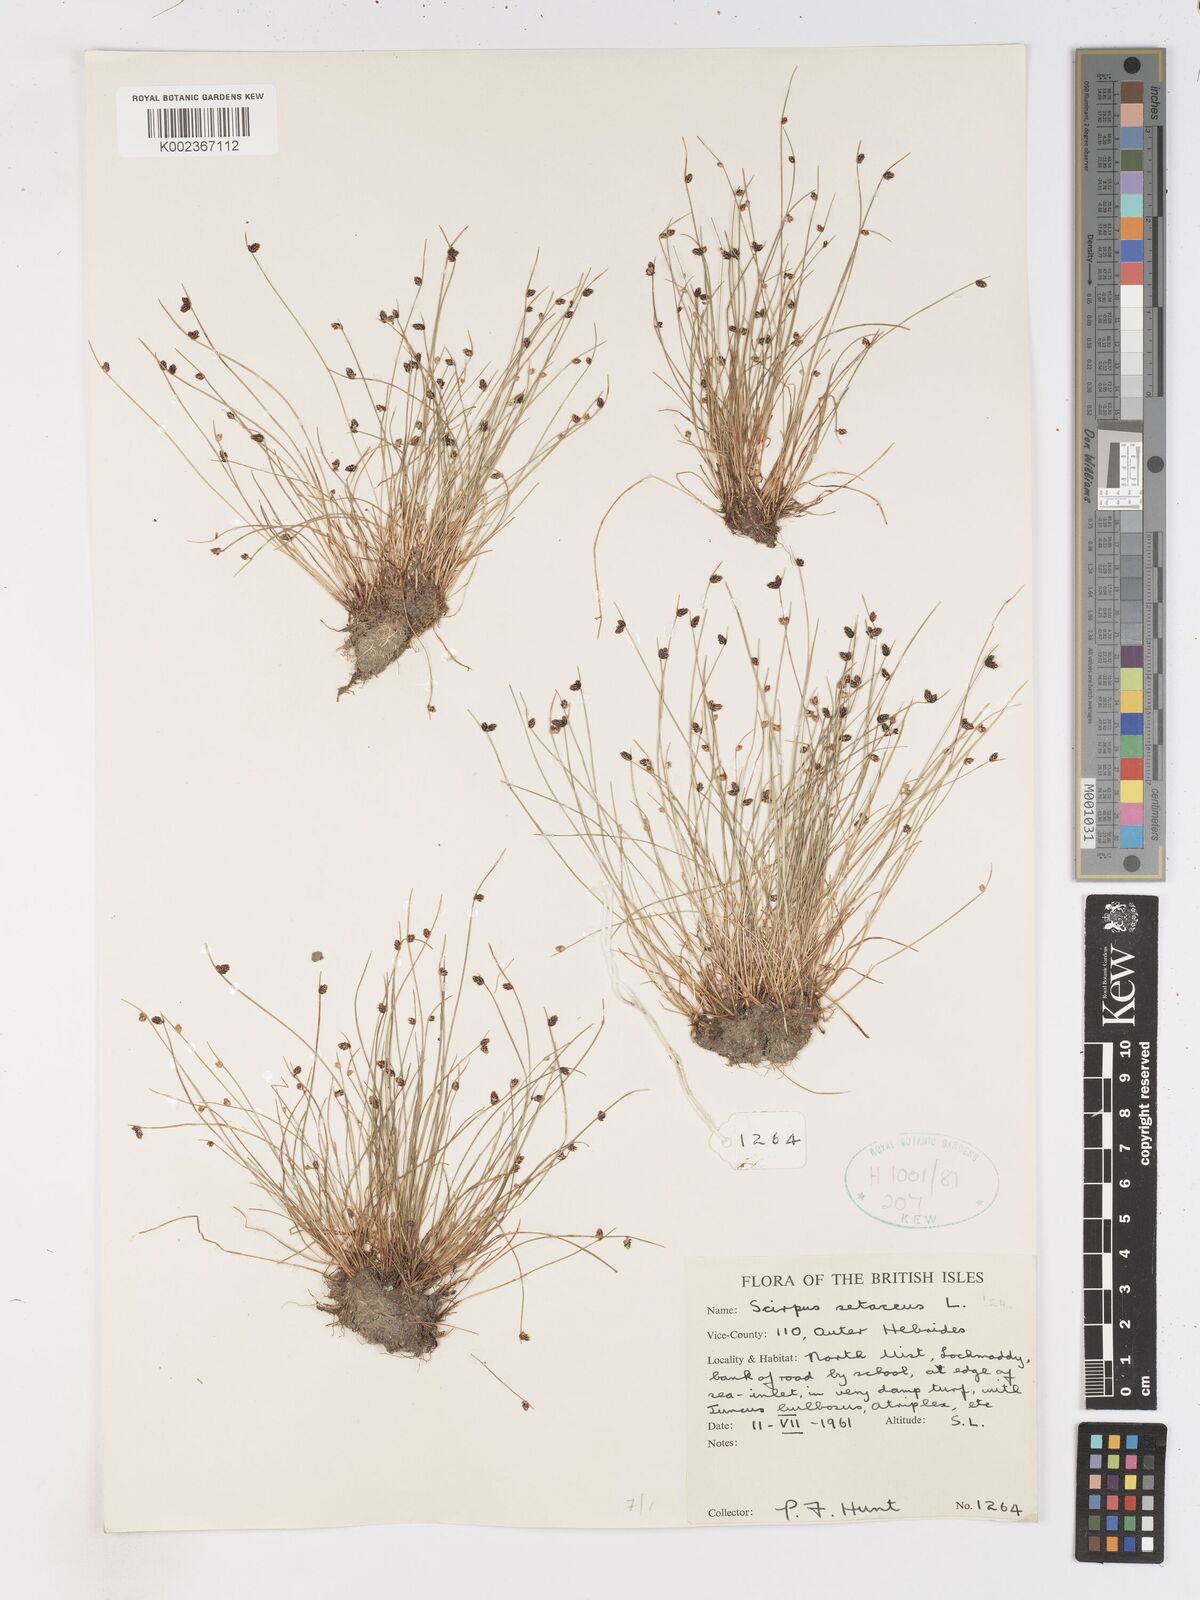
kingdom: Plantae
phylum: Tracheophyta
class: Liliopsida
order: Poales
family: Cyperaceae
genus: Isolepis
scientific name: Isolepis setacea
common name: Bristle club-rush
